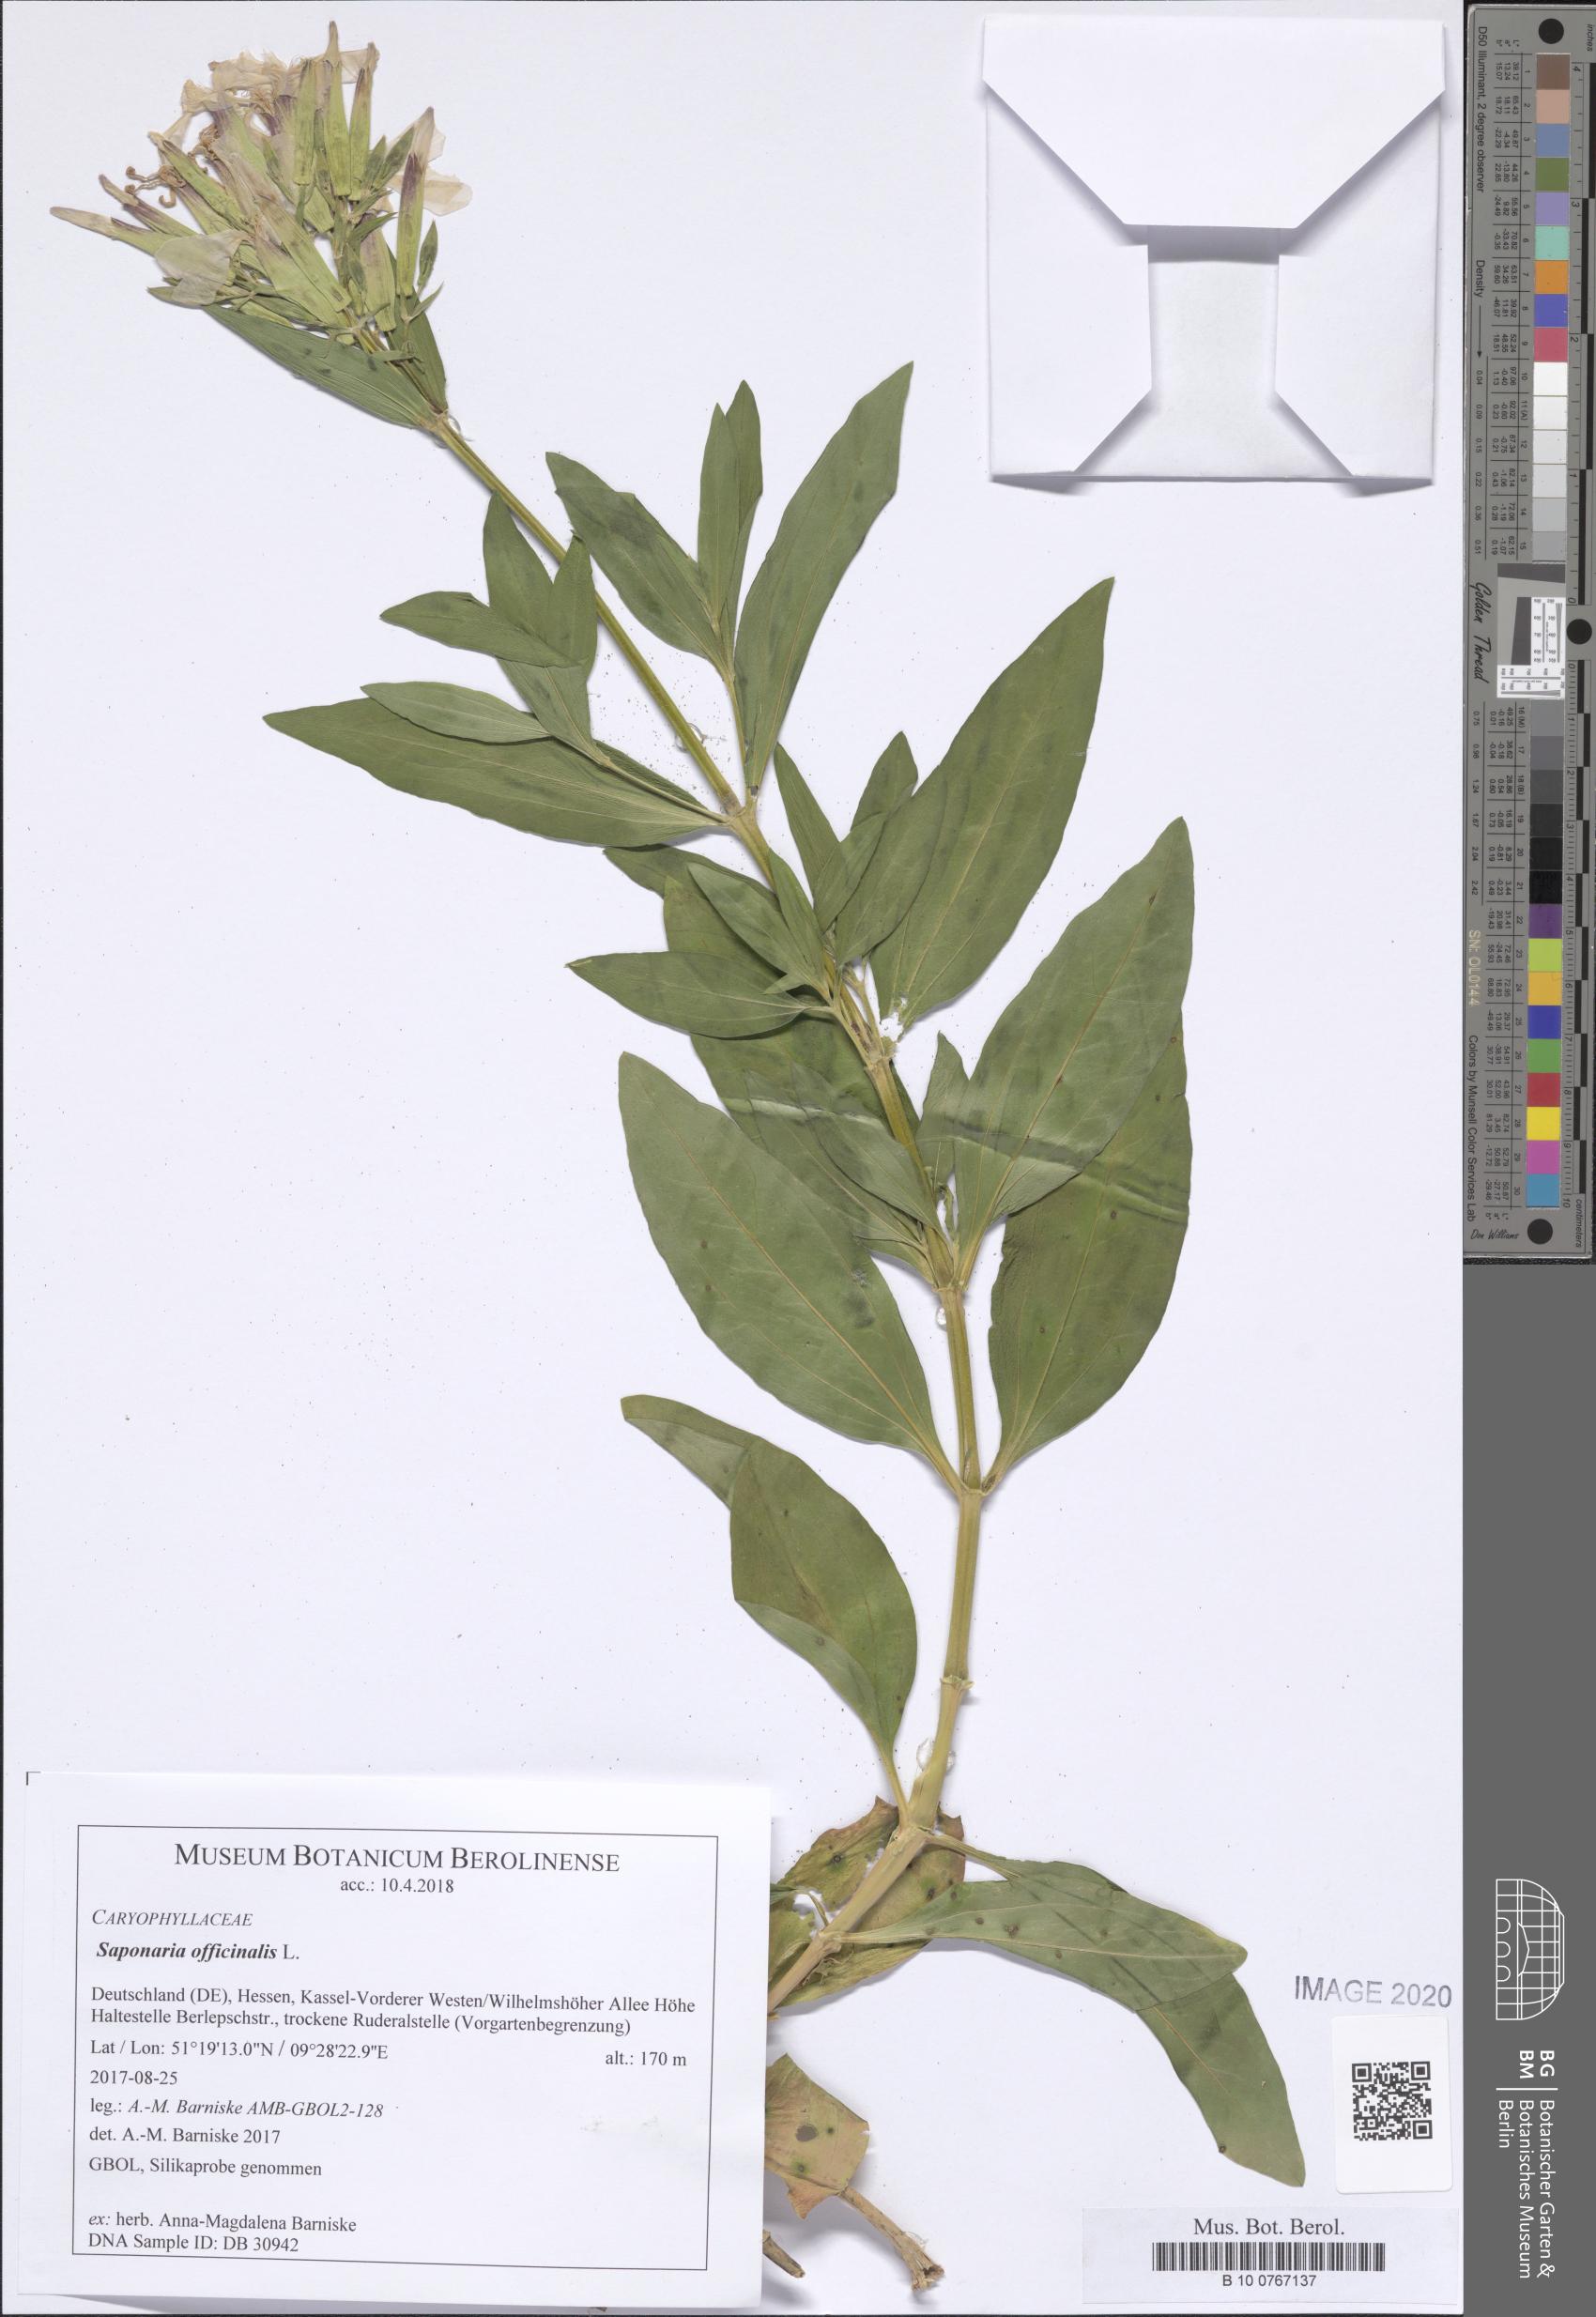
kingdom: Plantae
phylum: Tracheophyta
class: Magnoliopsida
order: Caryophyllales
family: Caryophyllaceae
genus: Saponaria
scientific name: Saponaria officinalis
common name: Soapwort
